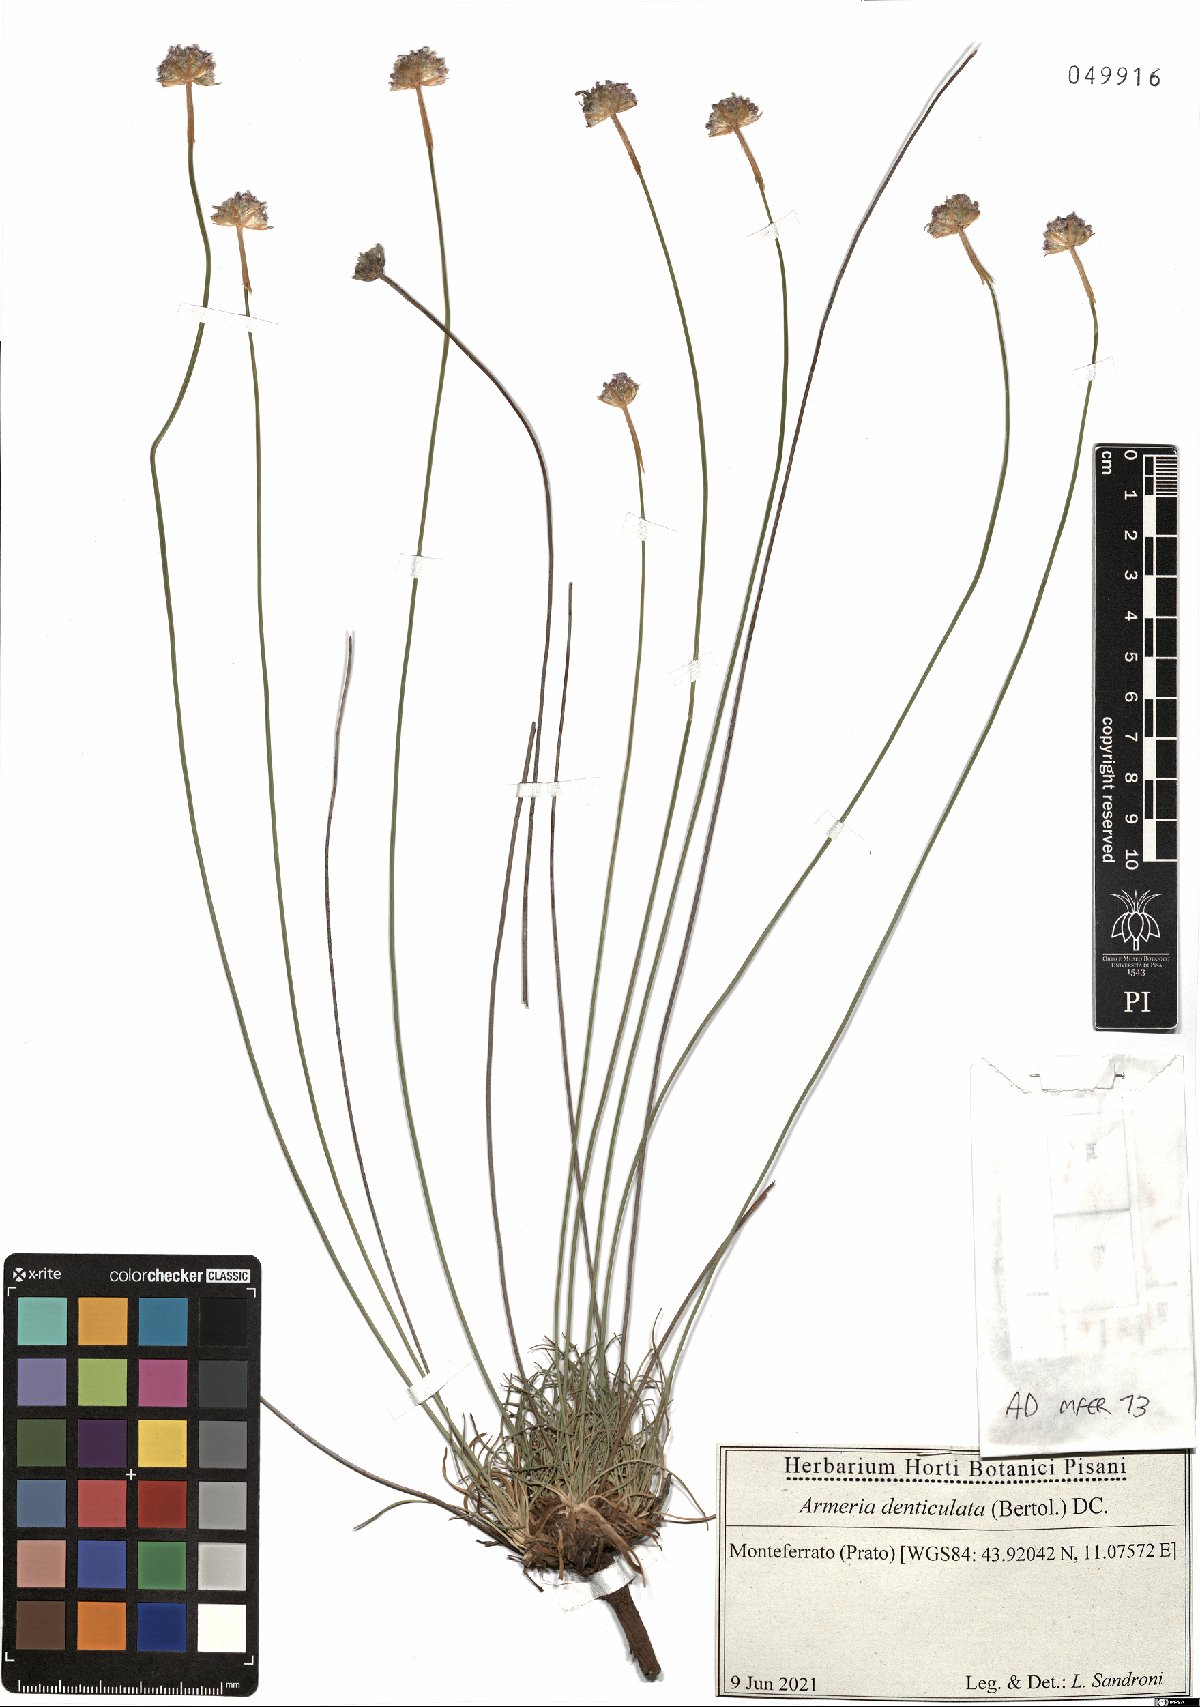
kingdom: Plantae
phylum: Tracheophyta
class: Magnoliopsida
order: Caryophyllales
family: Plumbaginaceae
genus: Armeria
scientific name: Armeria denticulata
